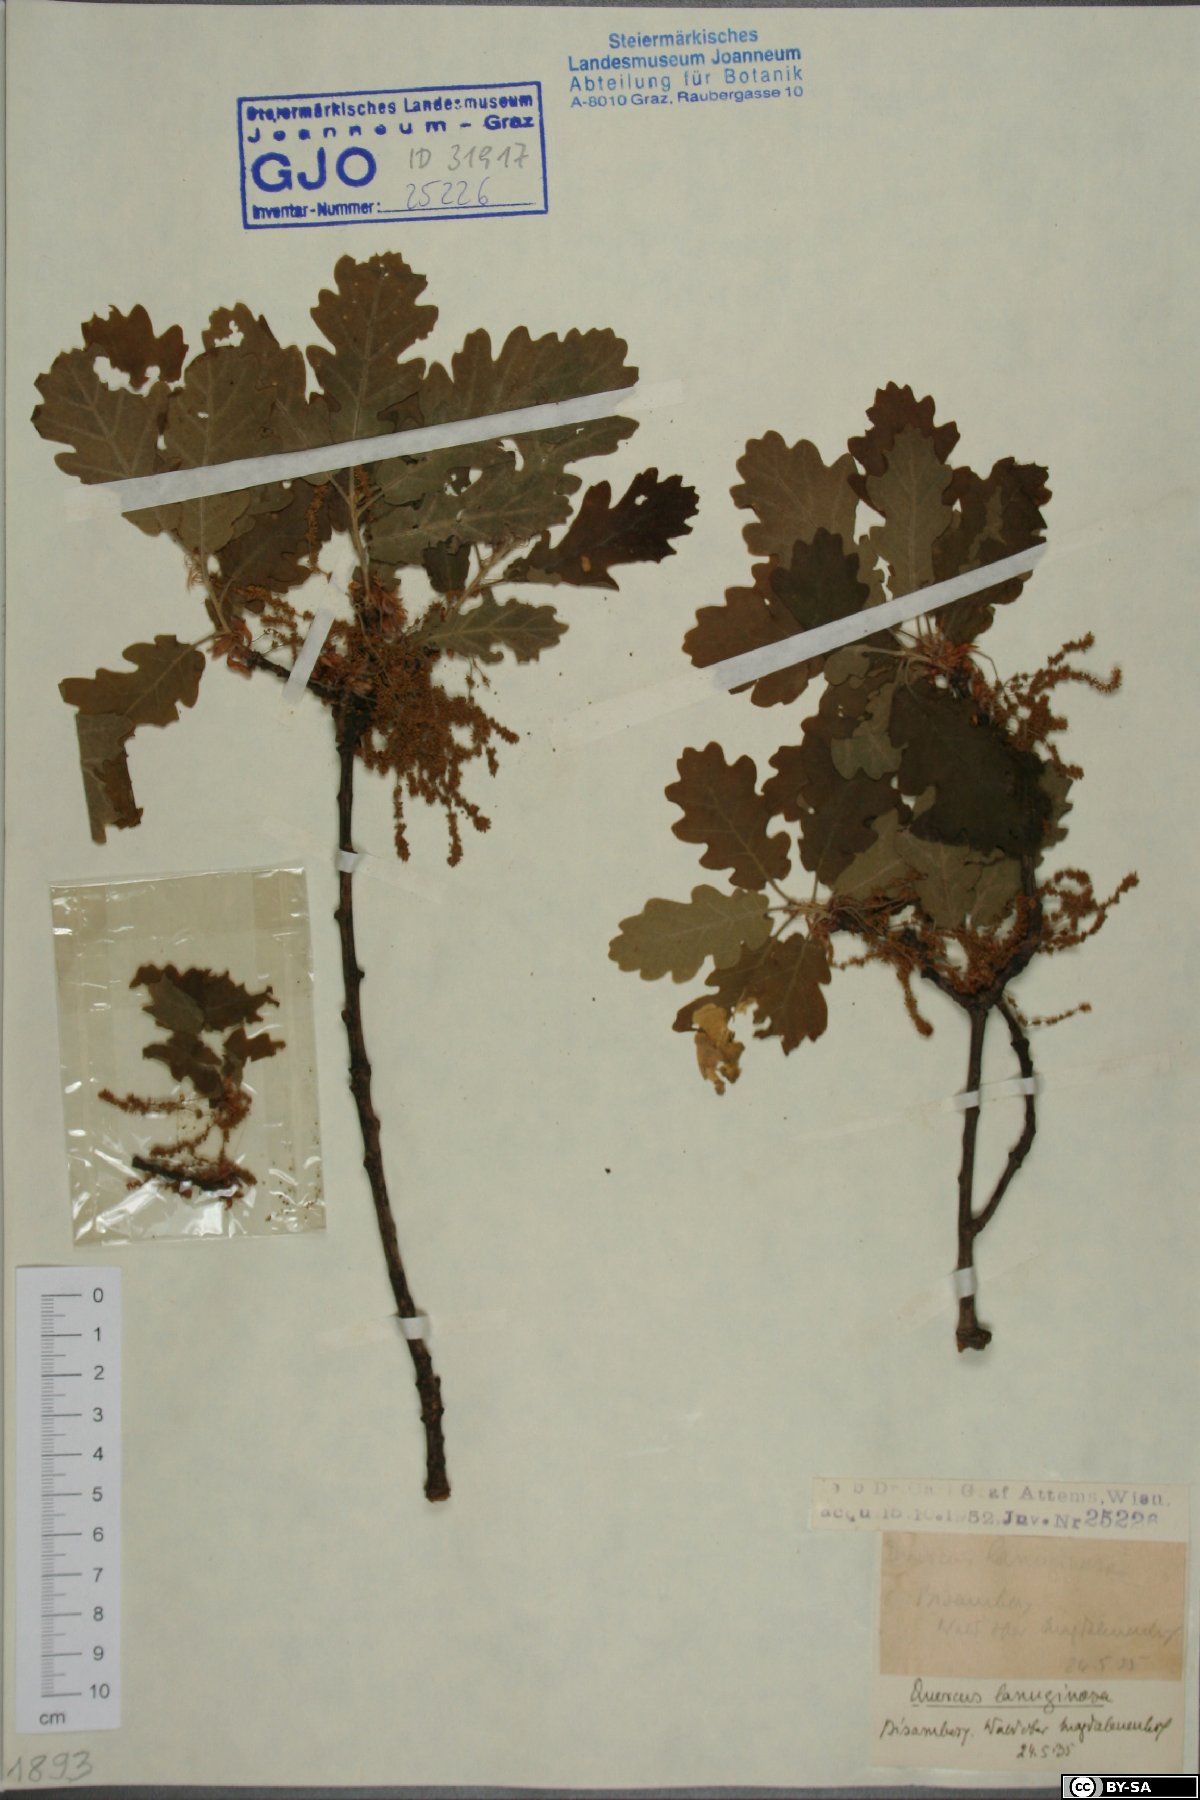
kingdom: Plantae
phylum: Tracheophyta
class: Magnoliopsida
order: Fagales
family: Fagaceae
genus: Quercus
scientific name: Quercus pubescens
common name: Downy oak
